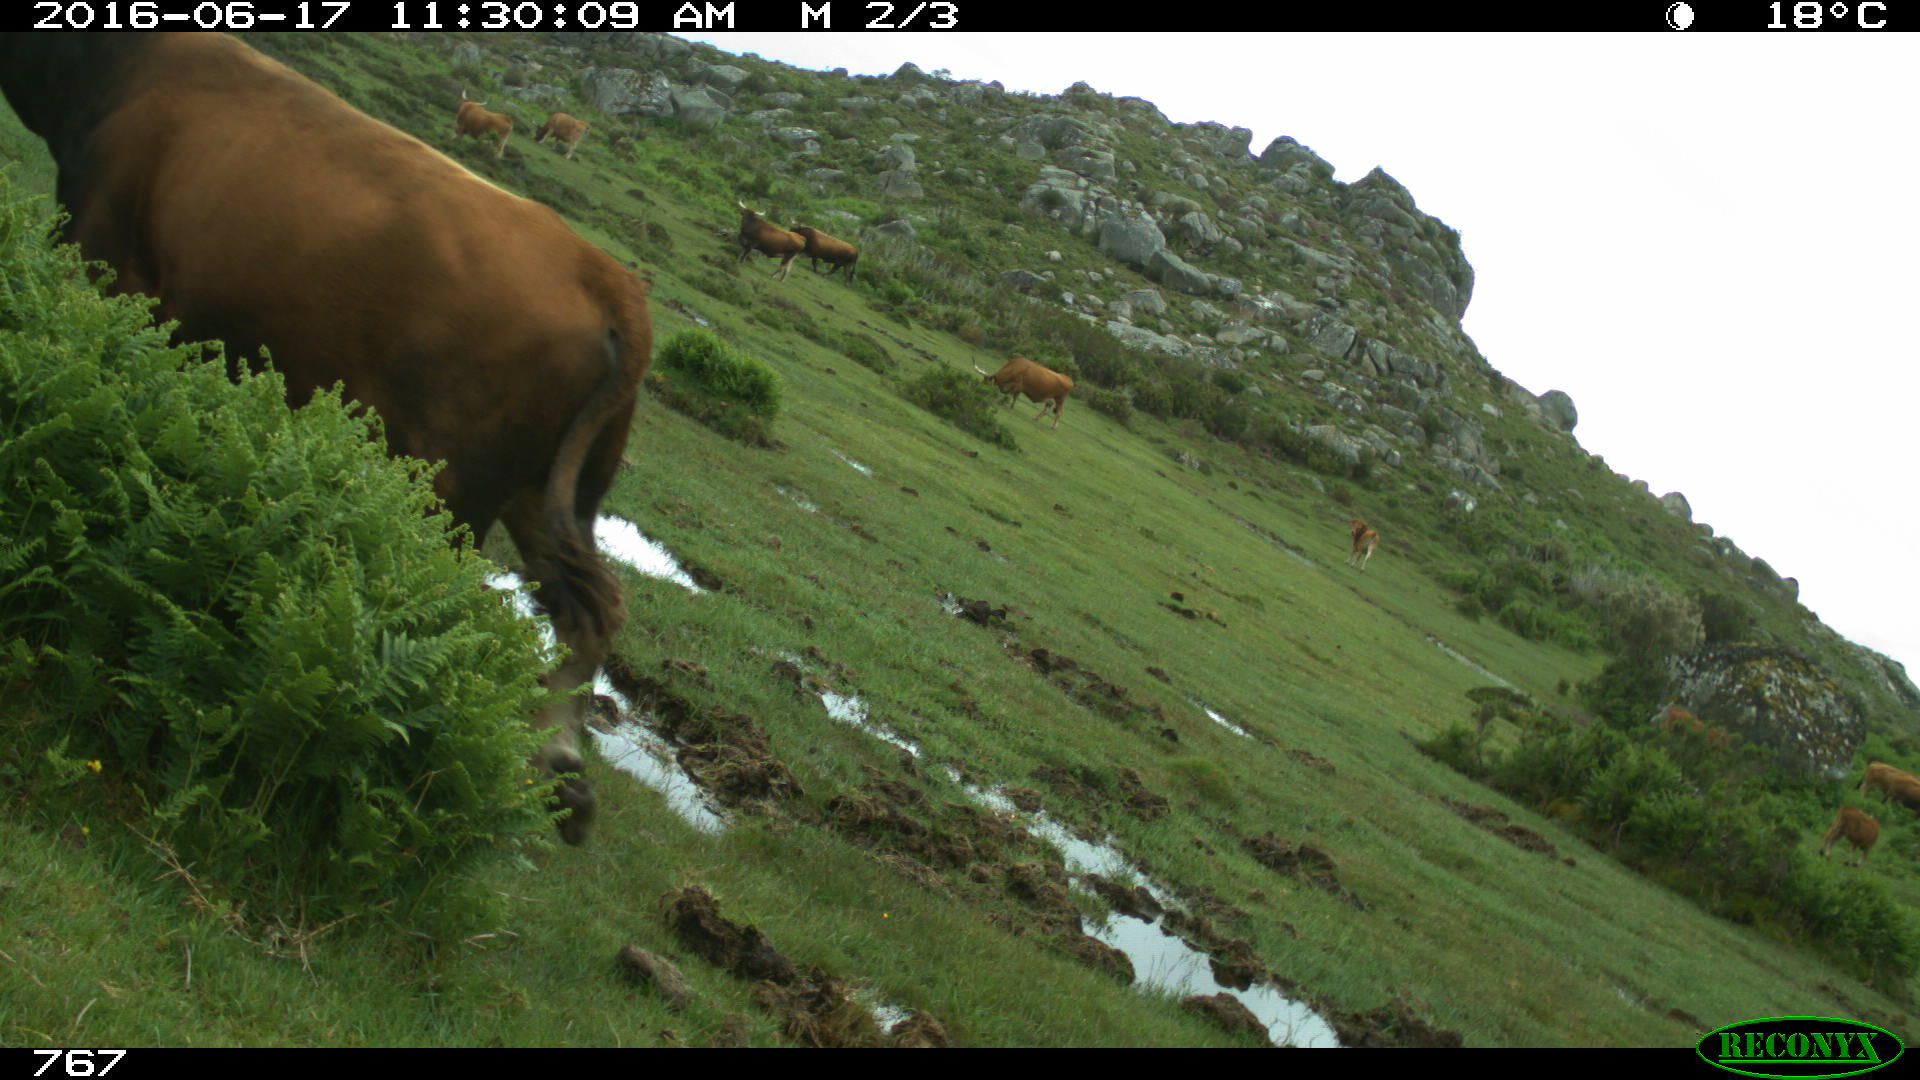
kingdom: Animalia
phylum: Chordata
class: Mammalia
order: Artiodactyla
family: Bovidae
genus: Bos
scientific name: Bos taurus
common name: Domesticated cattle
